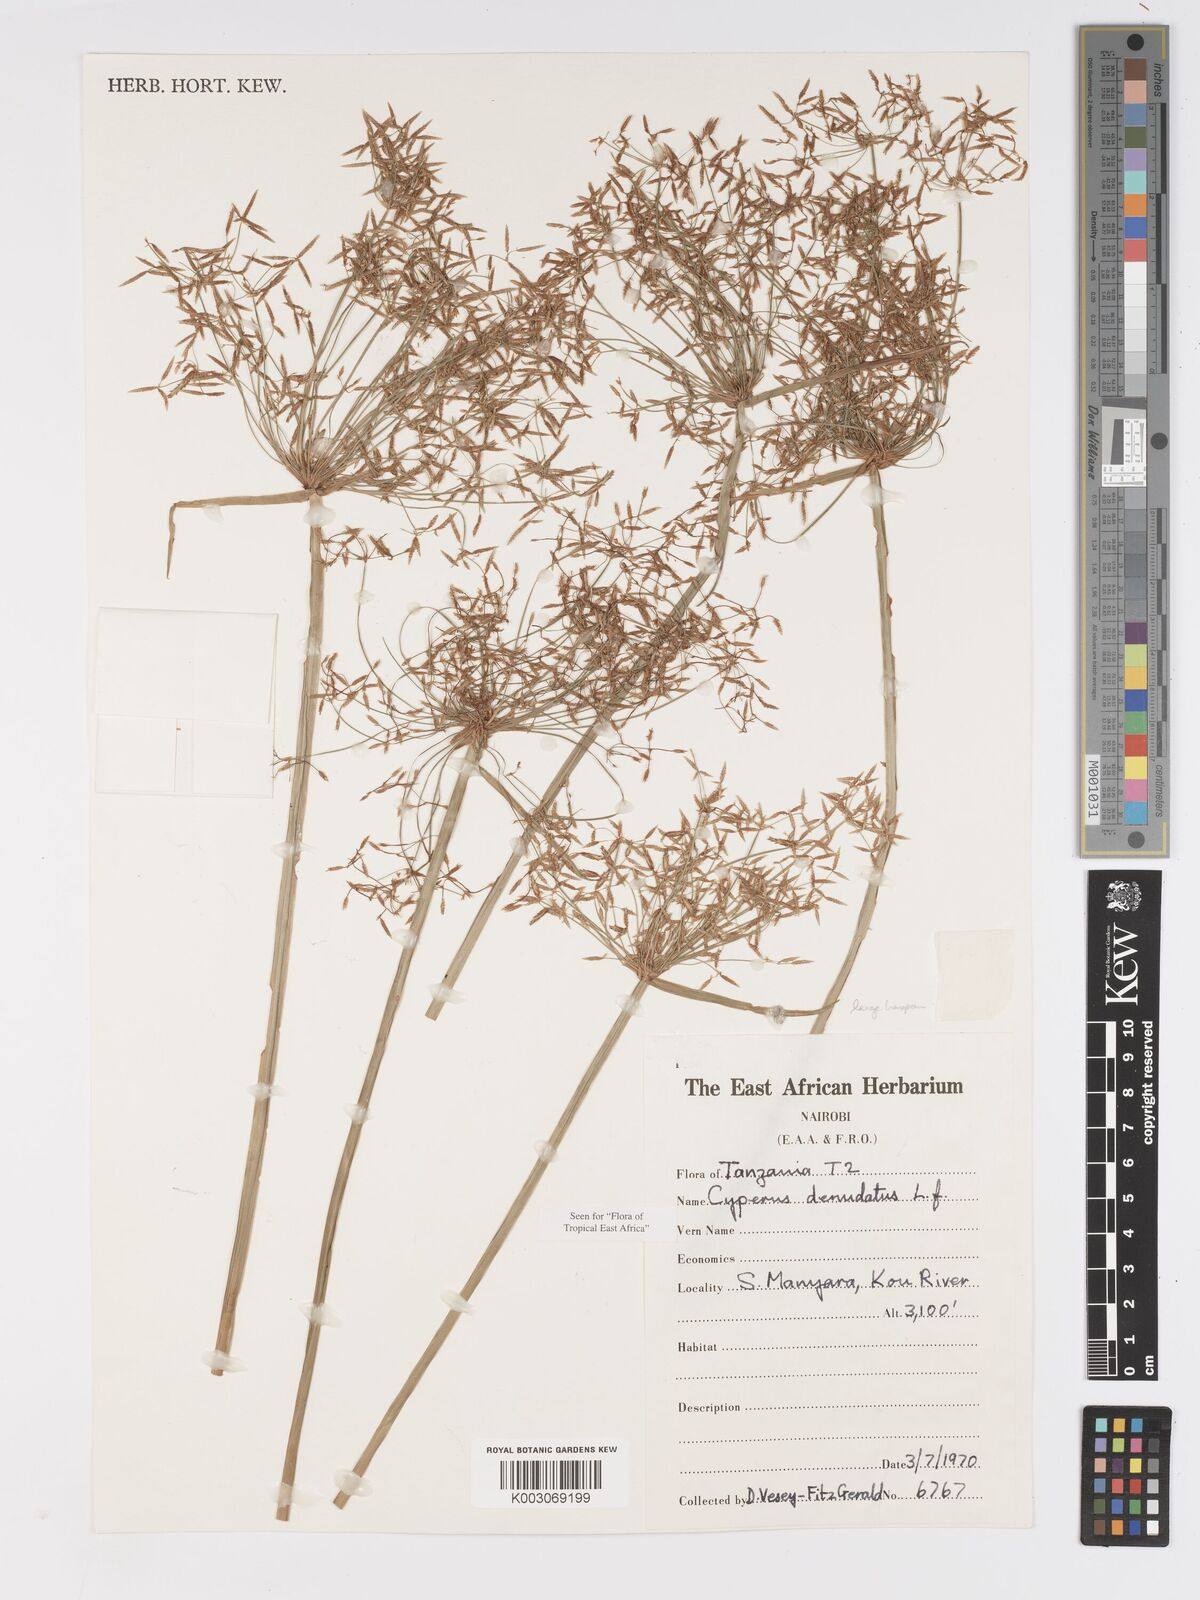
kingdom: Plantae
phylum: Tracheophyta
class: Liliopsida
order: Poales
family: Cyperaceae
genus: Cyperus
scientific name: Cyperus denudatus
